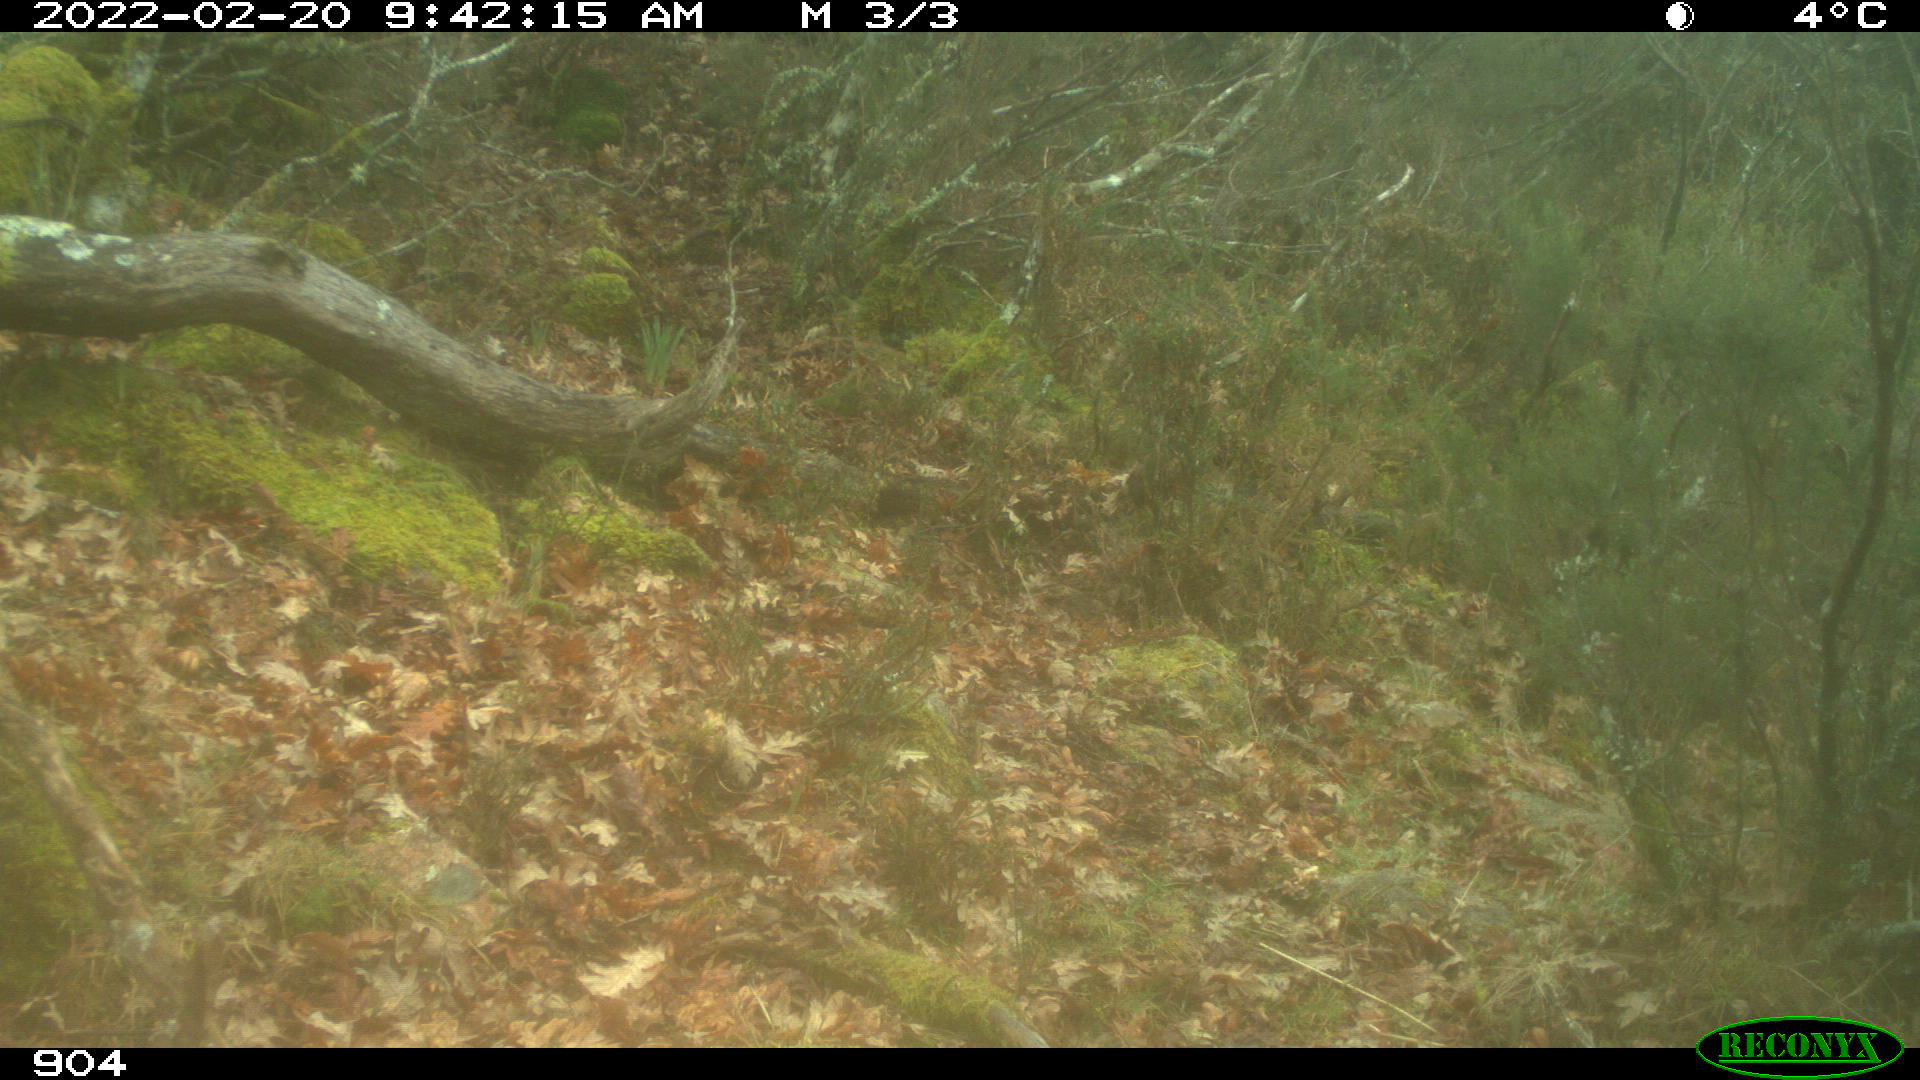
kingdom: Animalia
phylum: Chordata
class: Mammalia
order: Artiodactyla
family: Bovidae
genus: Bos
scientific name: Bos taurus
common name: Domesticated cattle
